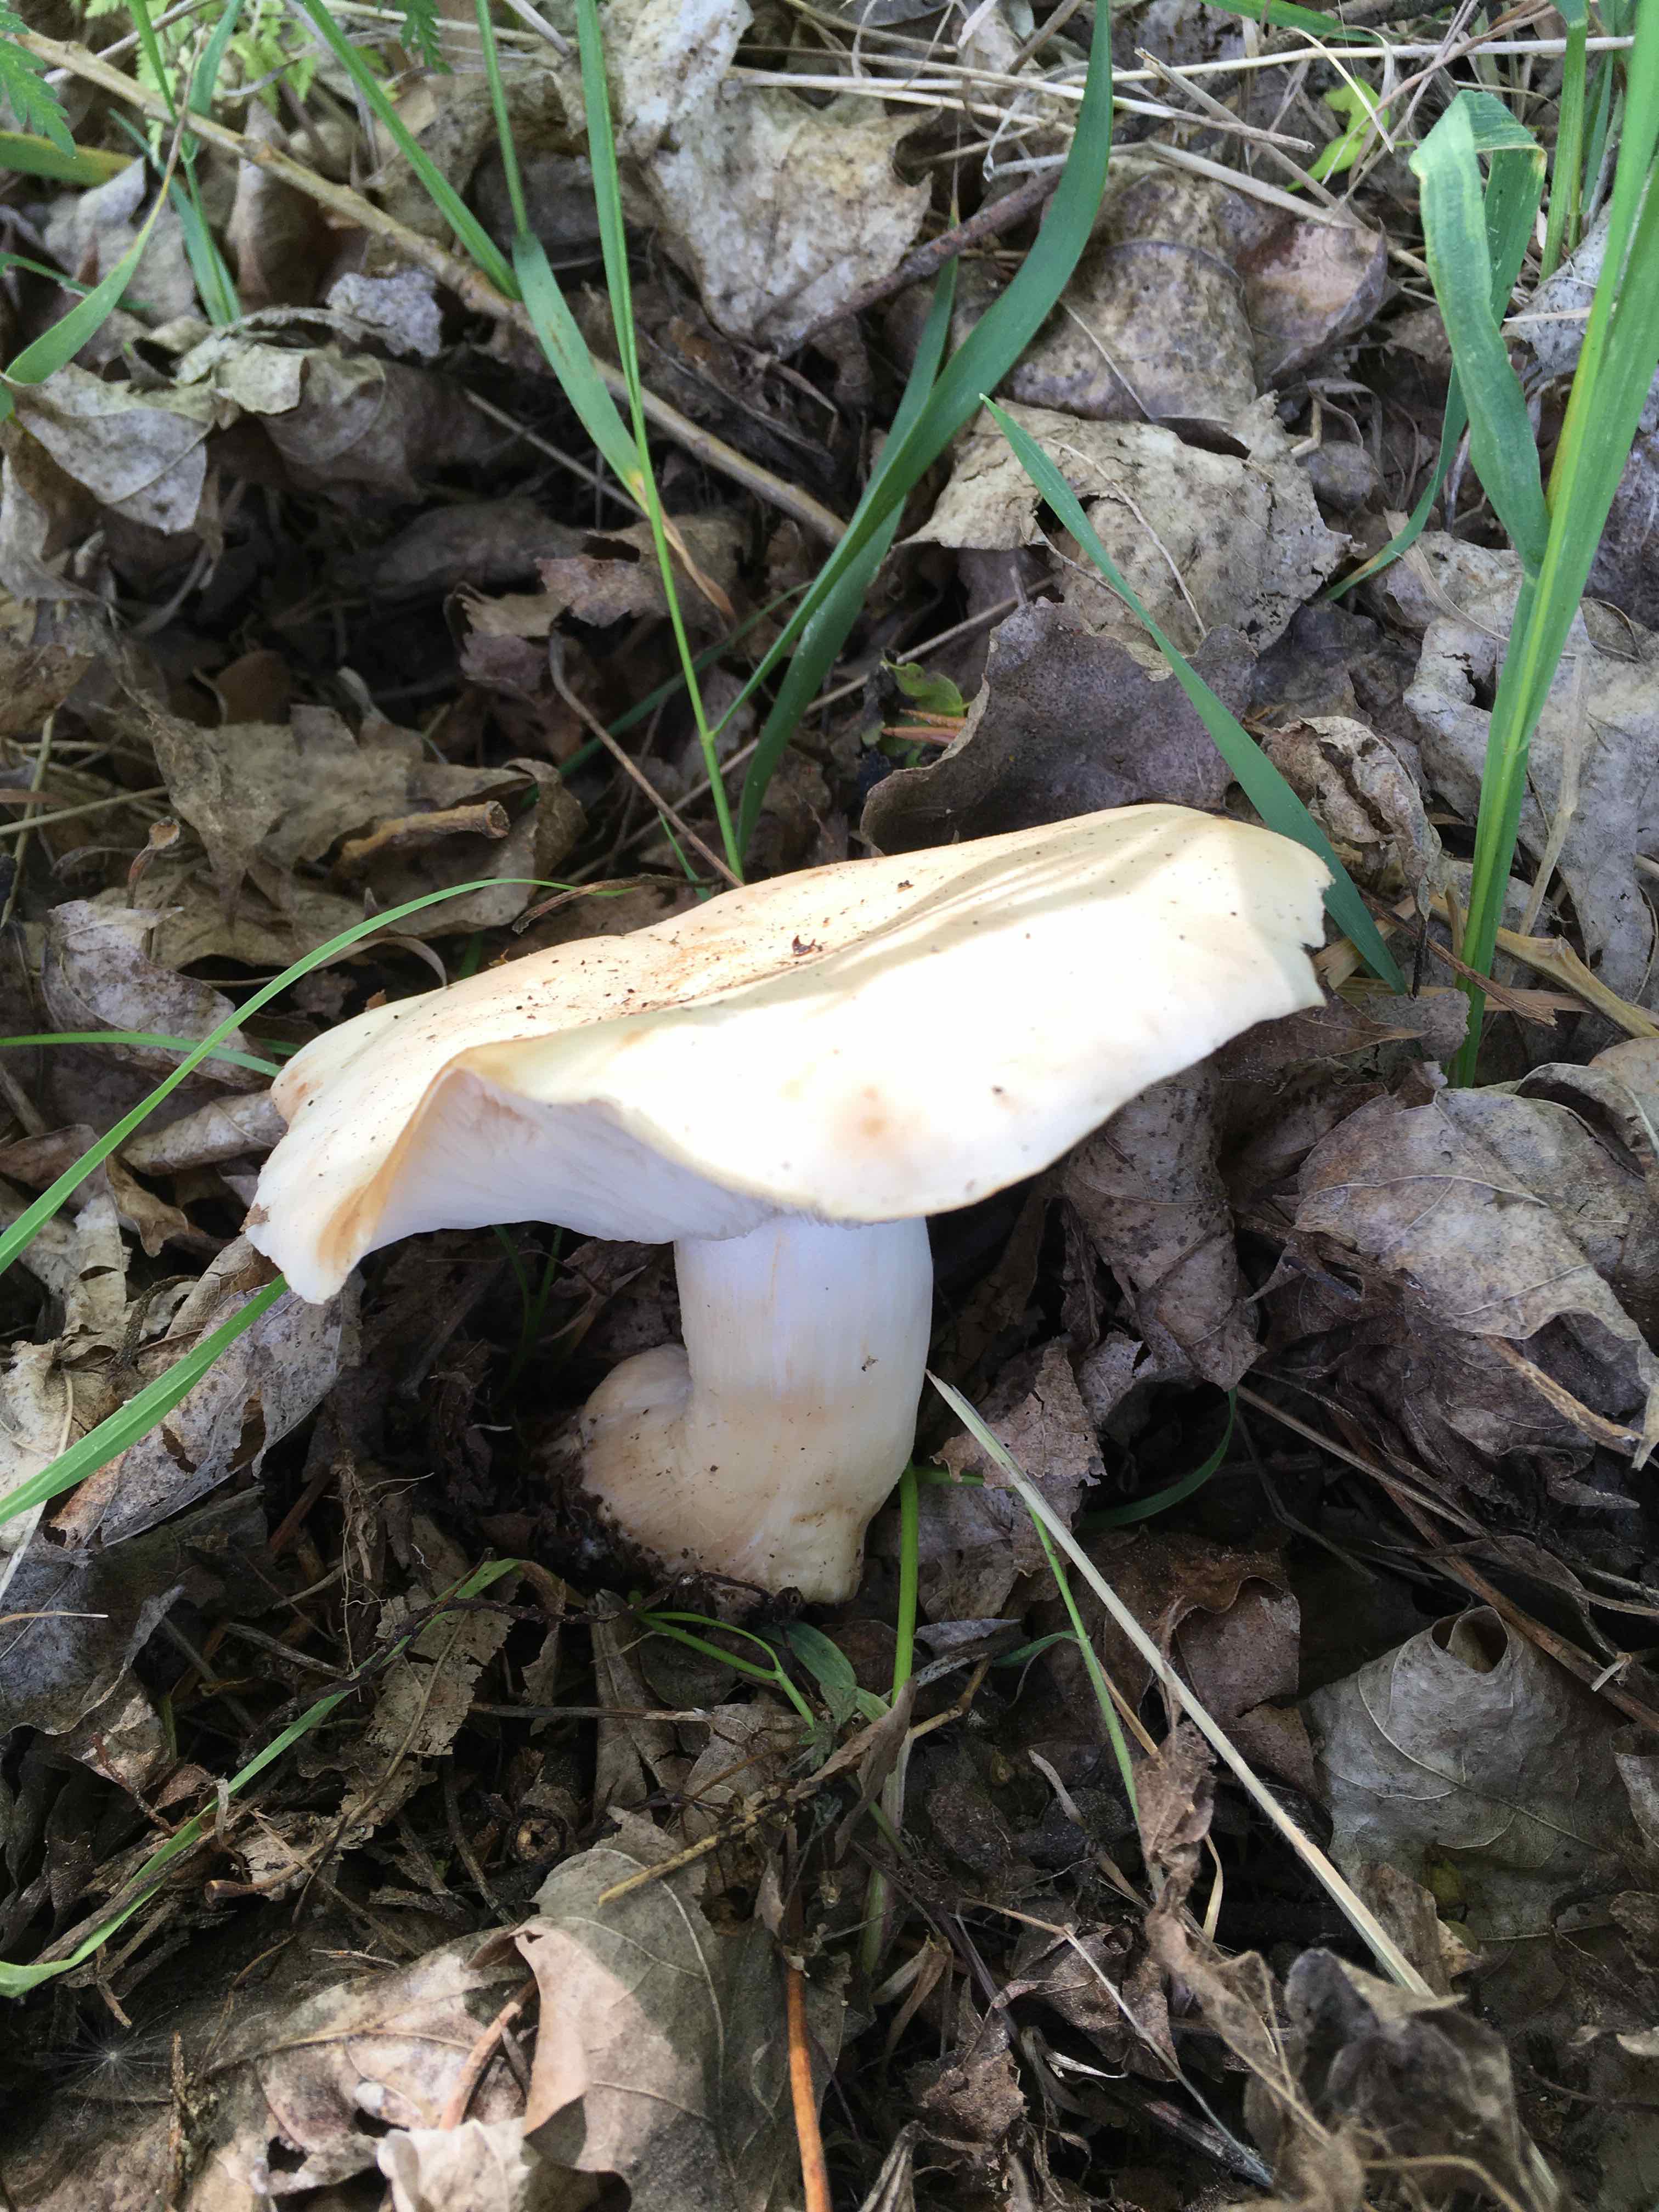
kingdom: Fungi
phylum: Basidiomycota
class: Agaricomycetes
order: Agaricales
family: Lyophyllaceae
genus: Calocybe
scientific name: Calocybe gambosa
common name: vårmusseron
